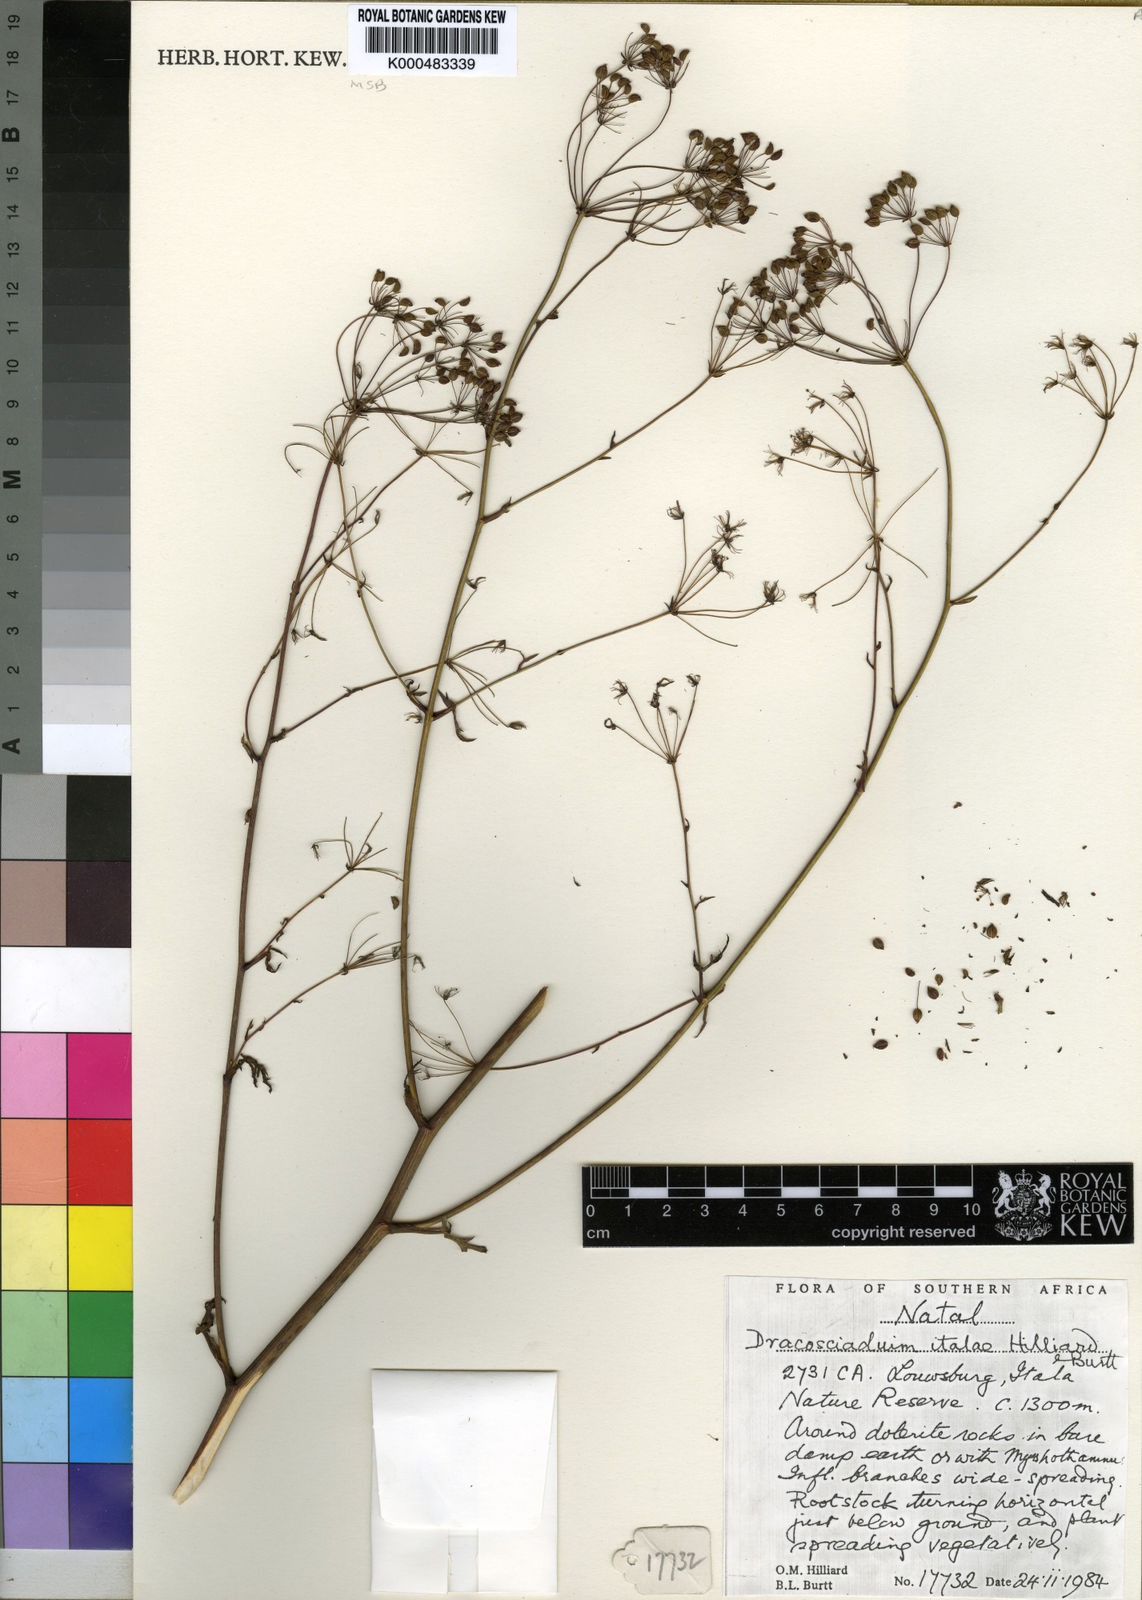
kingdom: Plantae
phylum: Tracheophyta
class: Magnoliopsida
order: Apiales
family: Apiaceae
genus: Dracosciadium
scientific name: Dracosciadium italae
